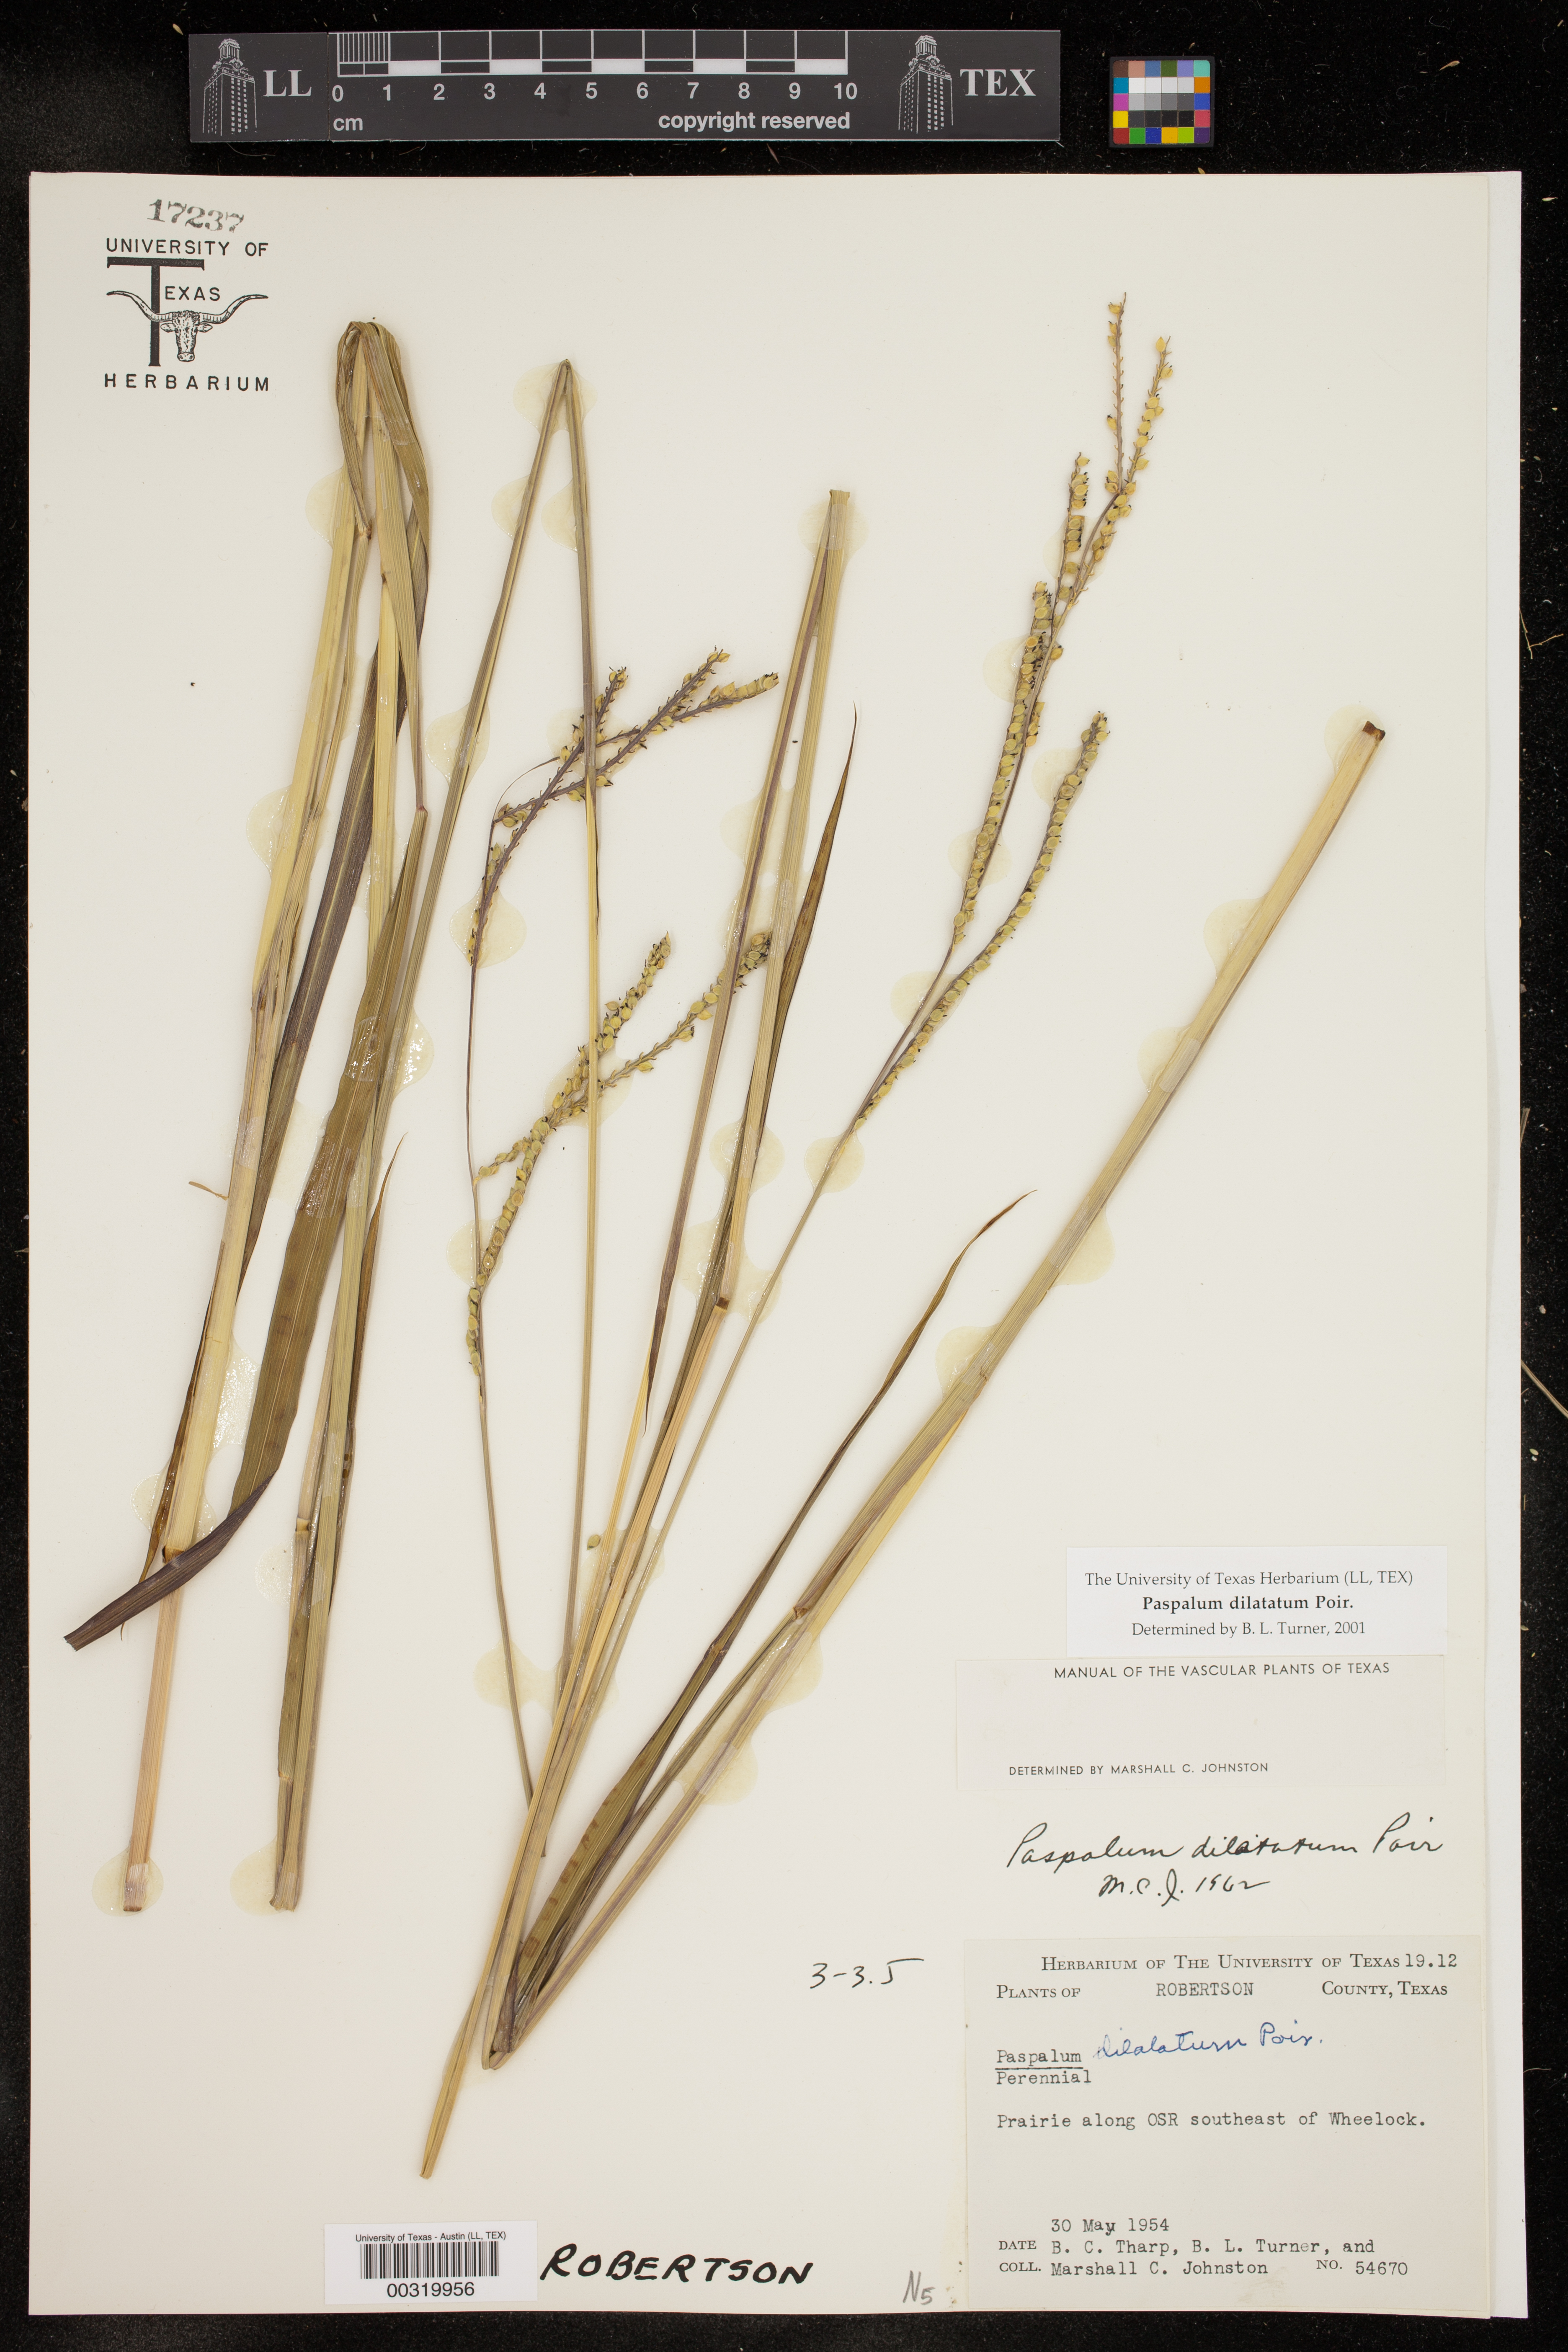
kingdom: Plantae
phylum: Tracheophyta
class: Liliopsida
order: Poales
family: Poaceae
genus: Paspalum
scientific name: Paspalum dilatatum
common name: Dallisgrass
